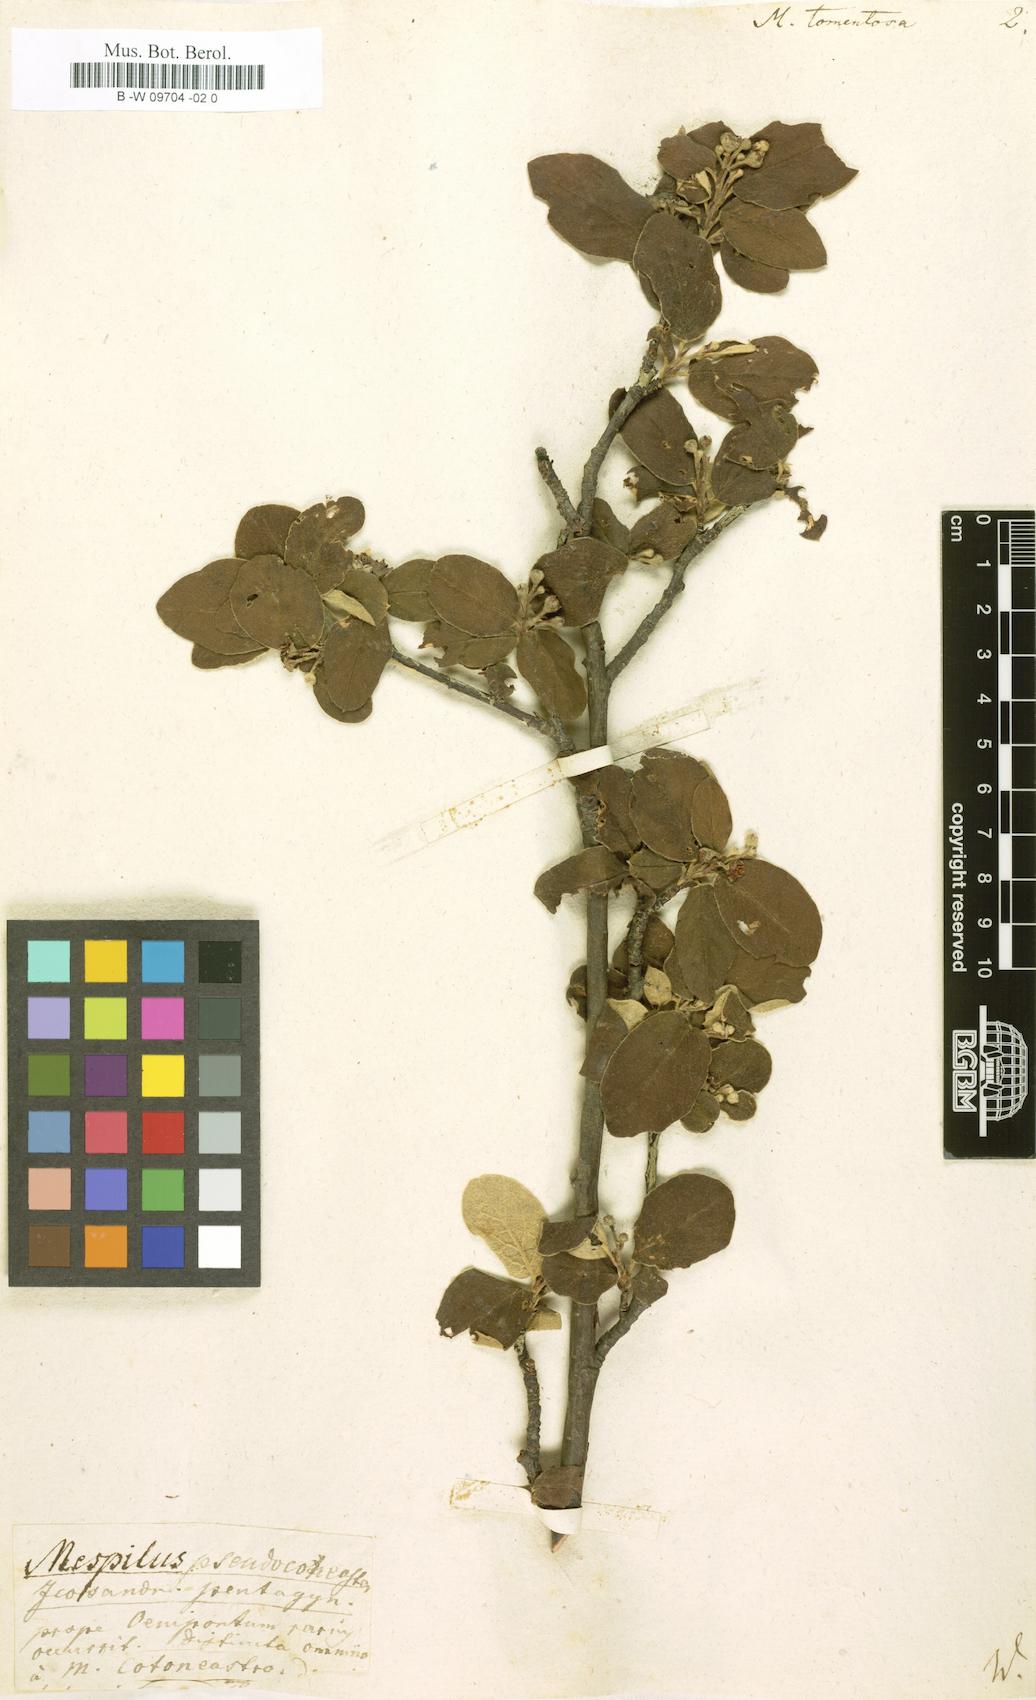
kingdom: Plantae
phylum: Tracheophyta
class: Magnoliopsida
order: Rosales
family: Rosaceae
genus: Mespilus
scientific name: Mespilus tomentosa
